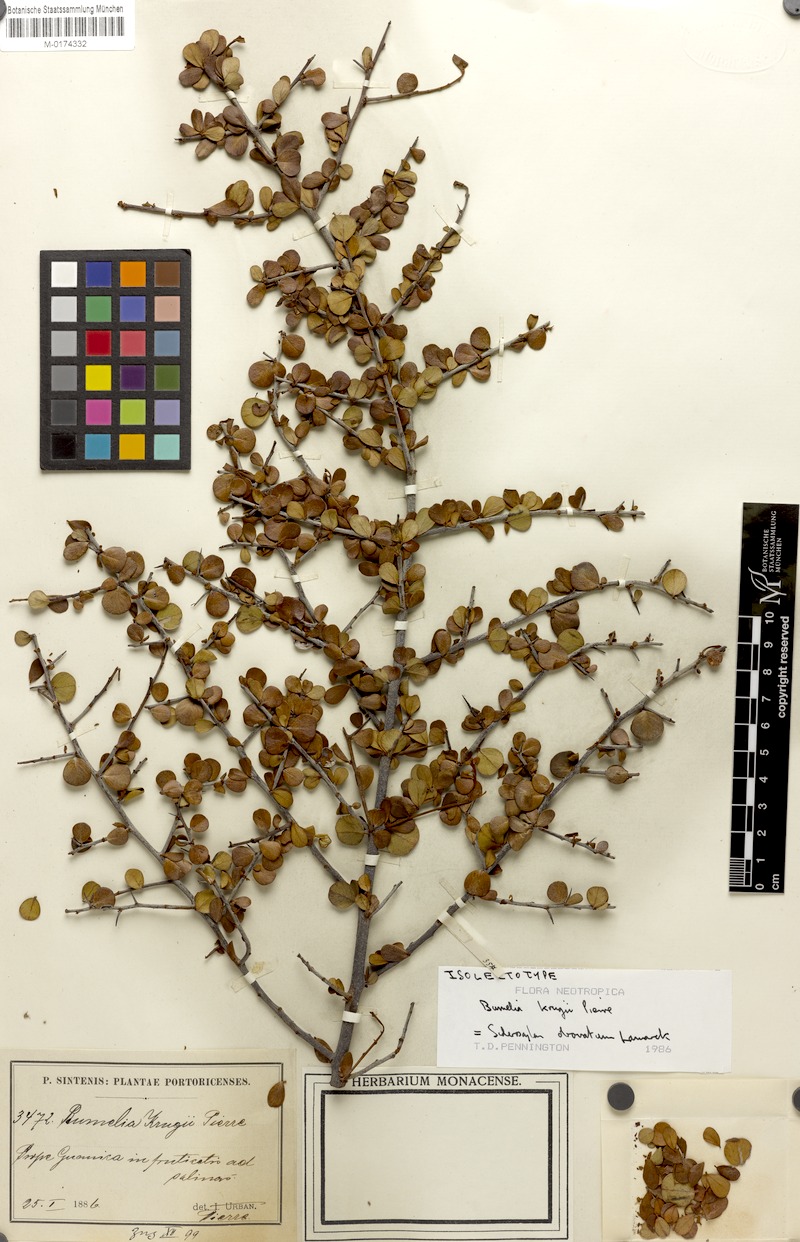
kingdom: Plantae
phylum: Tracheophyta
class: Magnoliopsida
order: Ericales
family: Sapotaceae
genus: Sideroxylon
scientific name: Sideroxylon obovatum
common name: Breakbill
